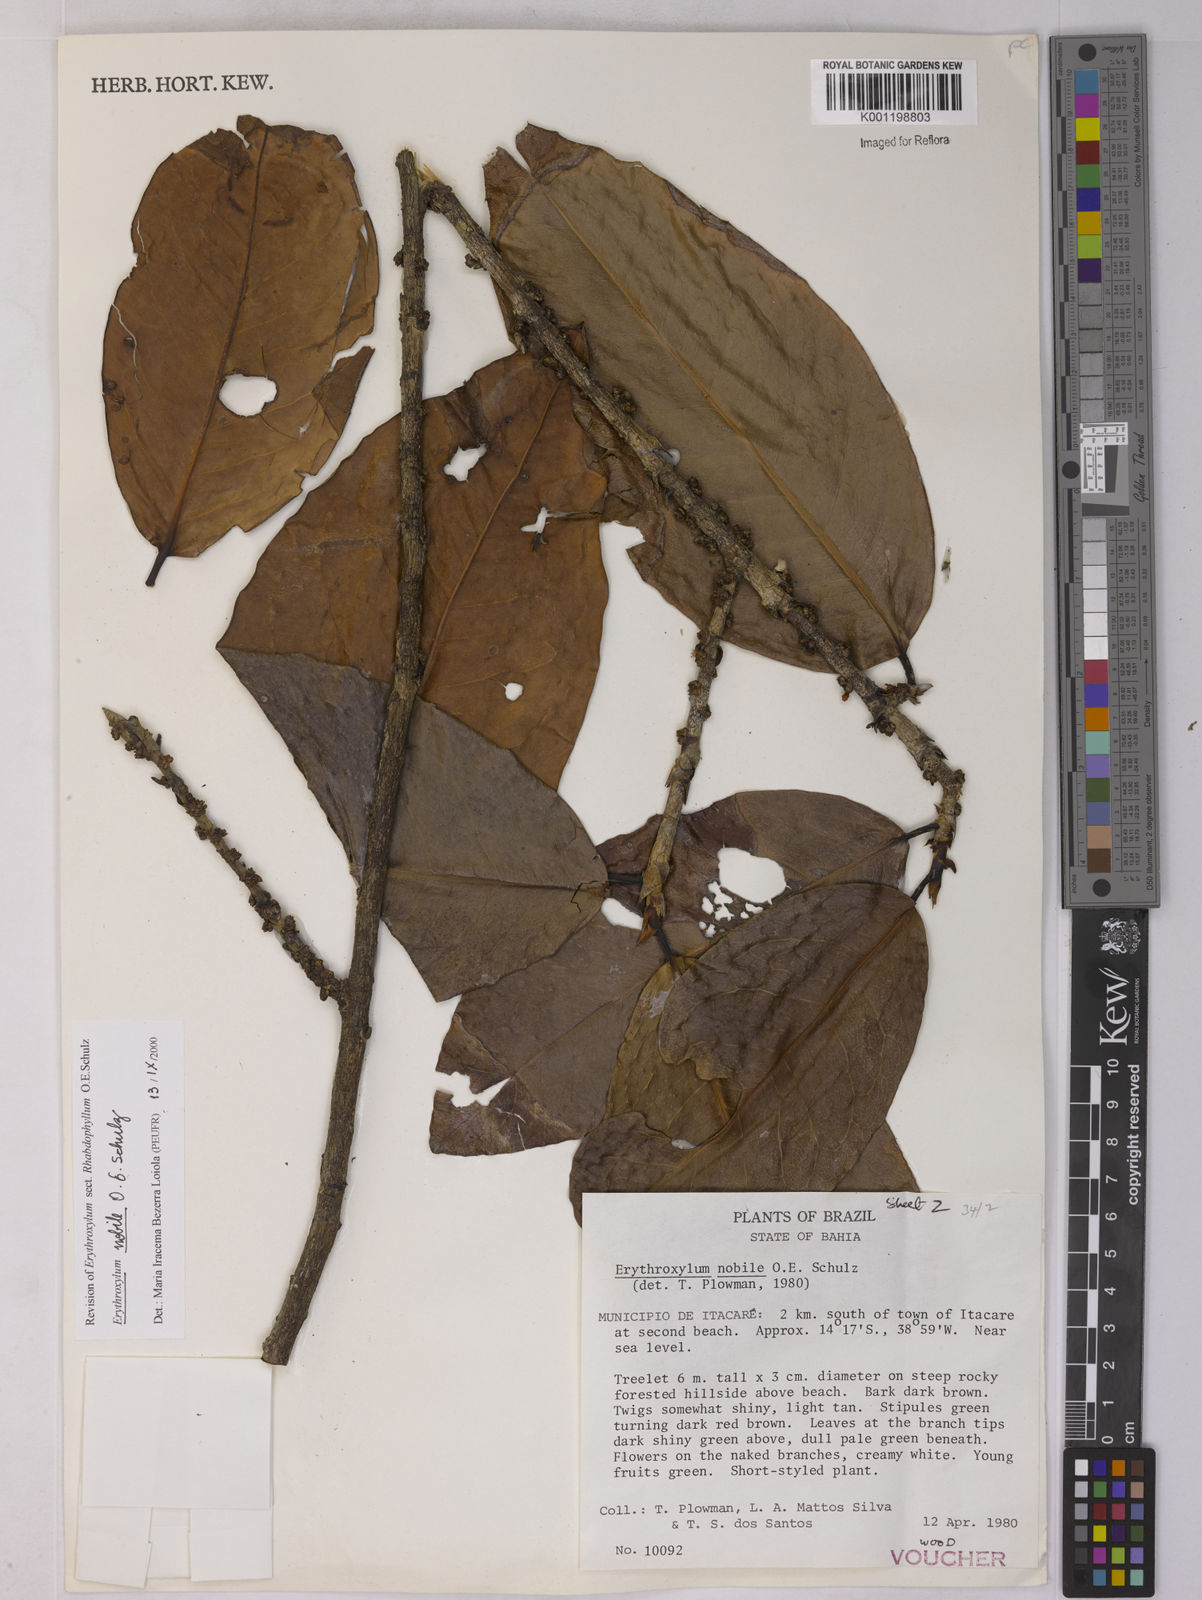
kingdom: Plantae
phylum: Tracheophyta
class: Magnoliopsida
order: Malpighiales
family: Erythroxylaceae
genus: Erythroxylum
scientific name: Erythroxylum nobile
